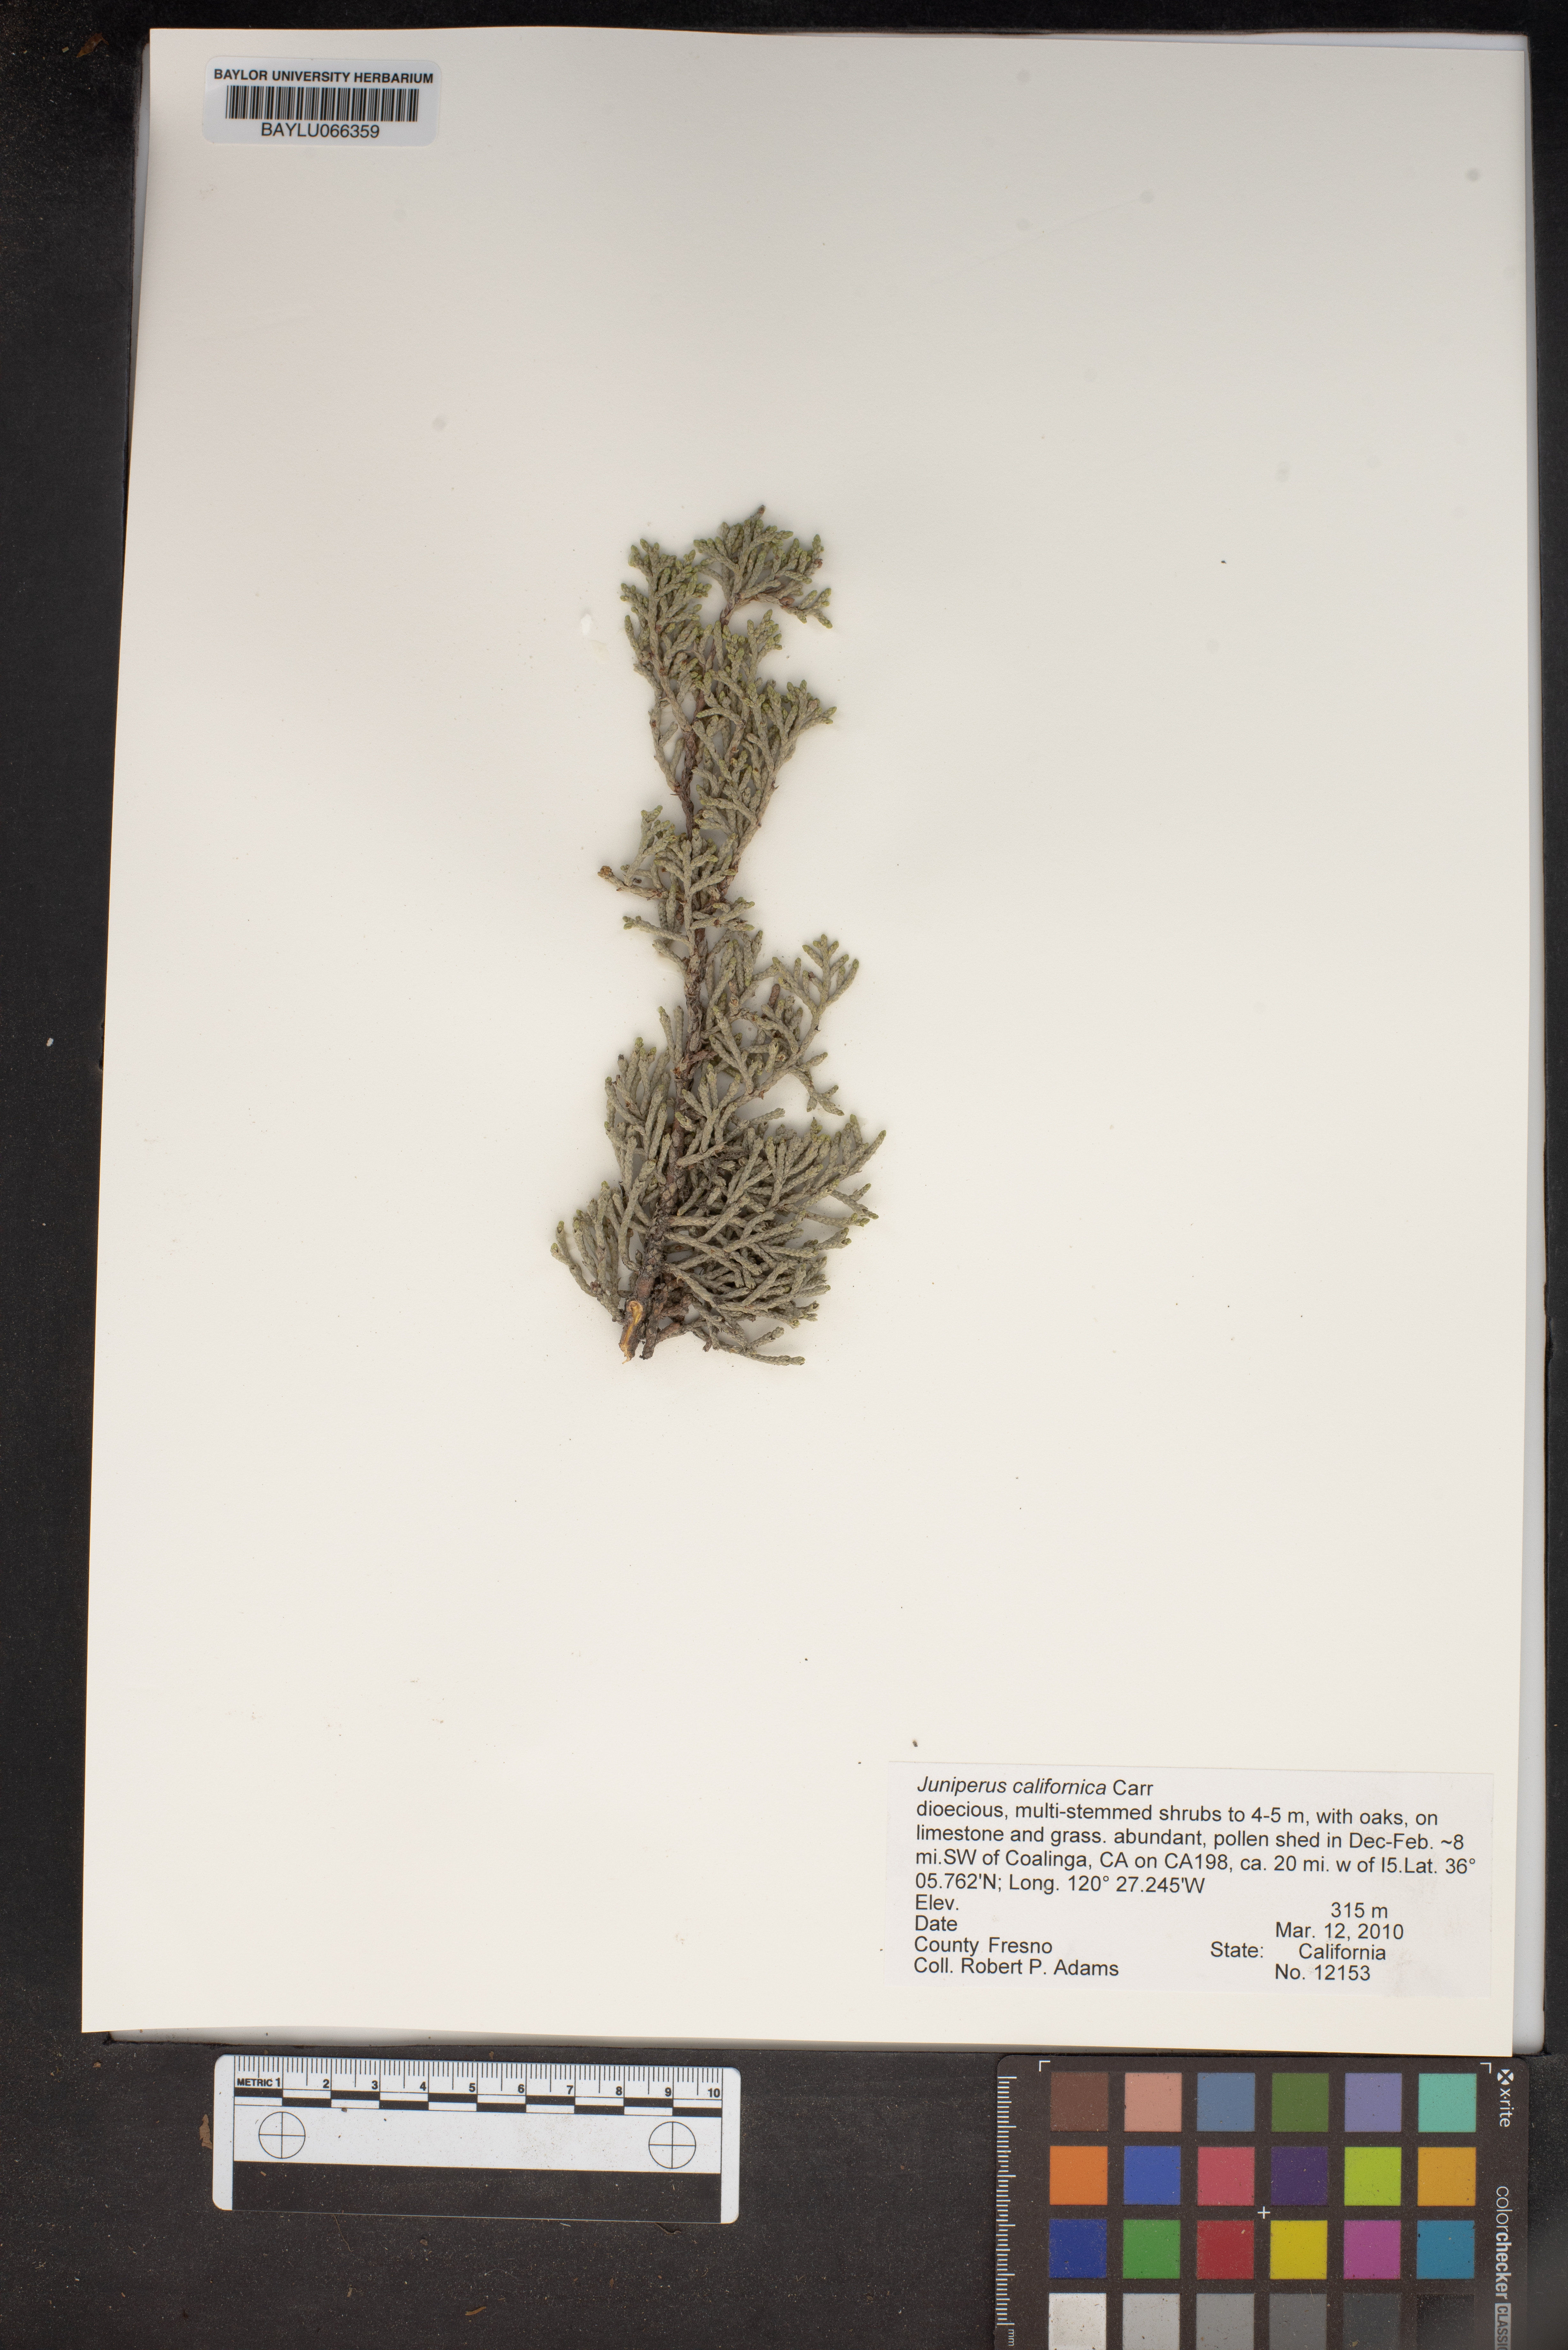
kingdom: Plantae
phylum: Tracheophyta
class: Pinopsida
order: Pinales
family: Cupressaceae
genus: Juniperus
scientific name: Juniperus californica
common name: California juniper
